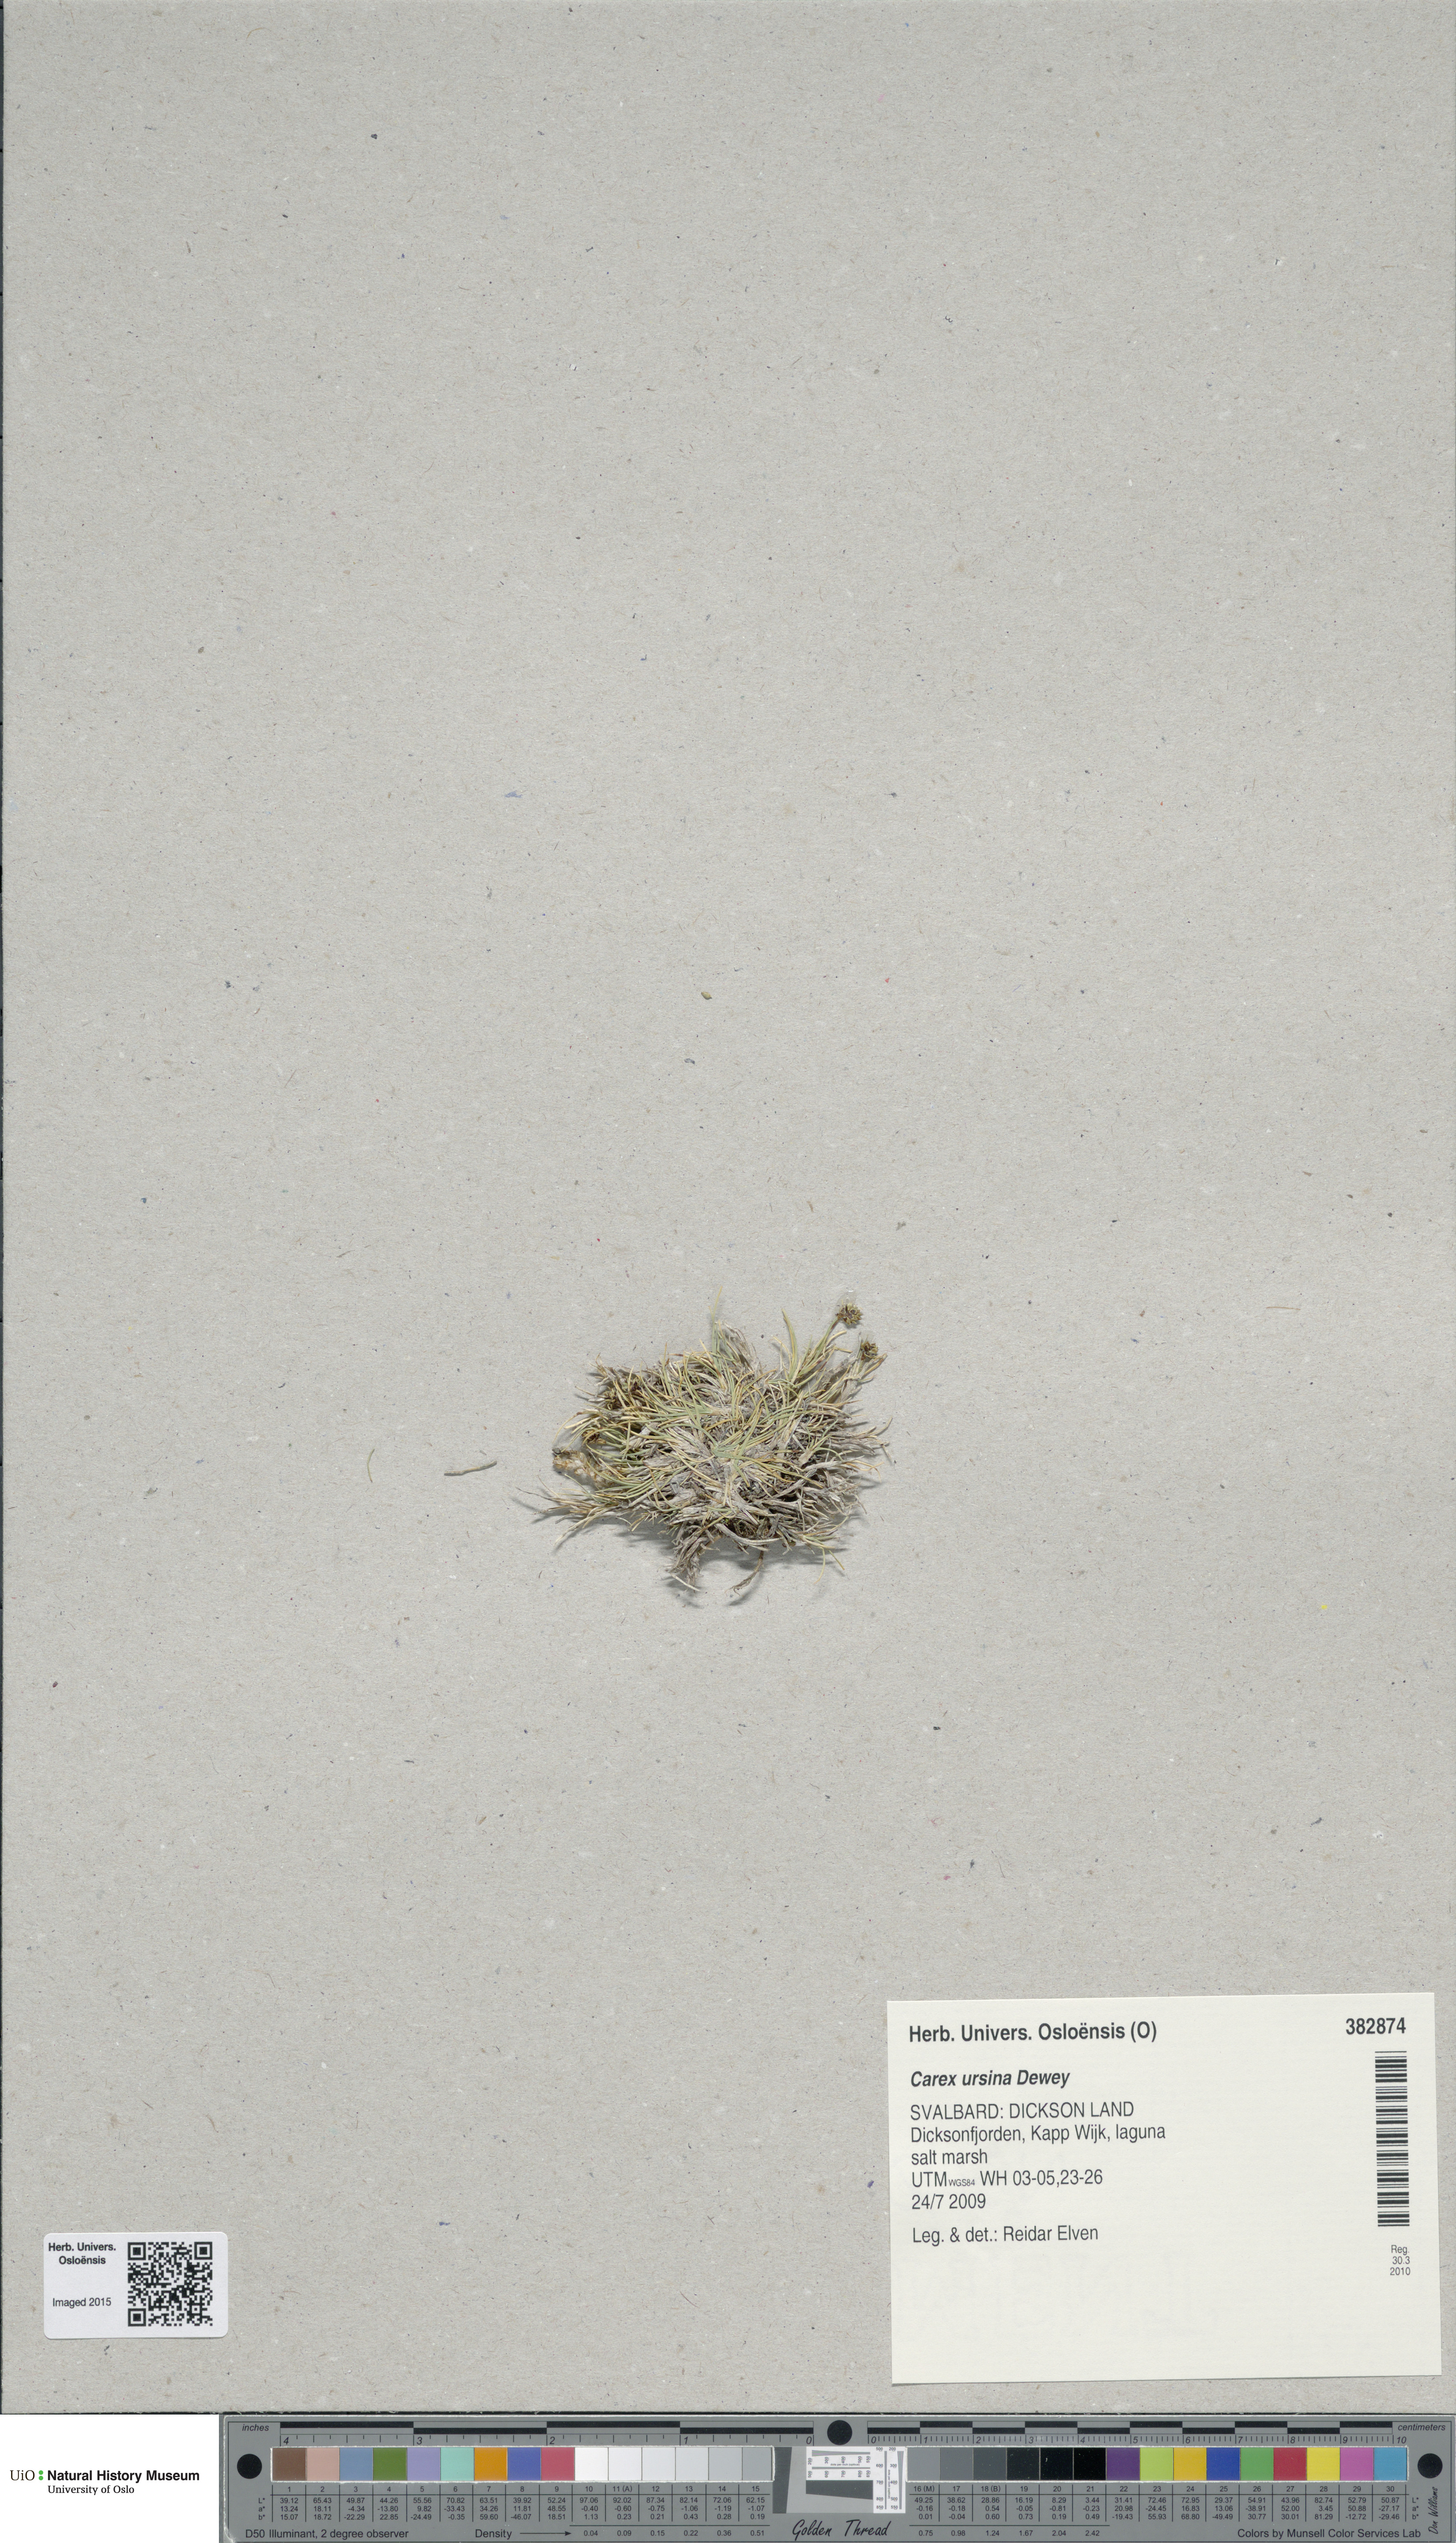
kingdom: Plantae
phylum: Tracheophyta
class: Liliopsida
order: Poales
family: Cyperaceae
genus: Carex
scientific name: Carex ursina
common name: Bear sedge
